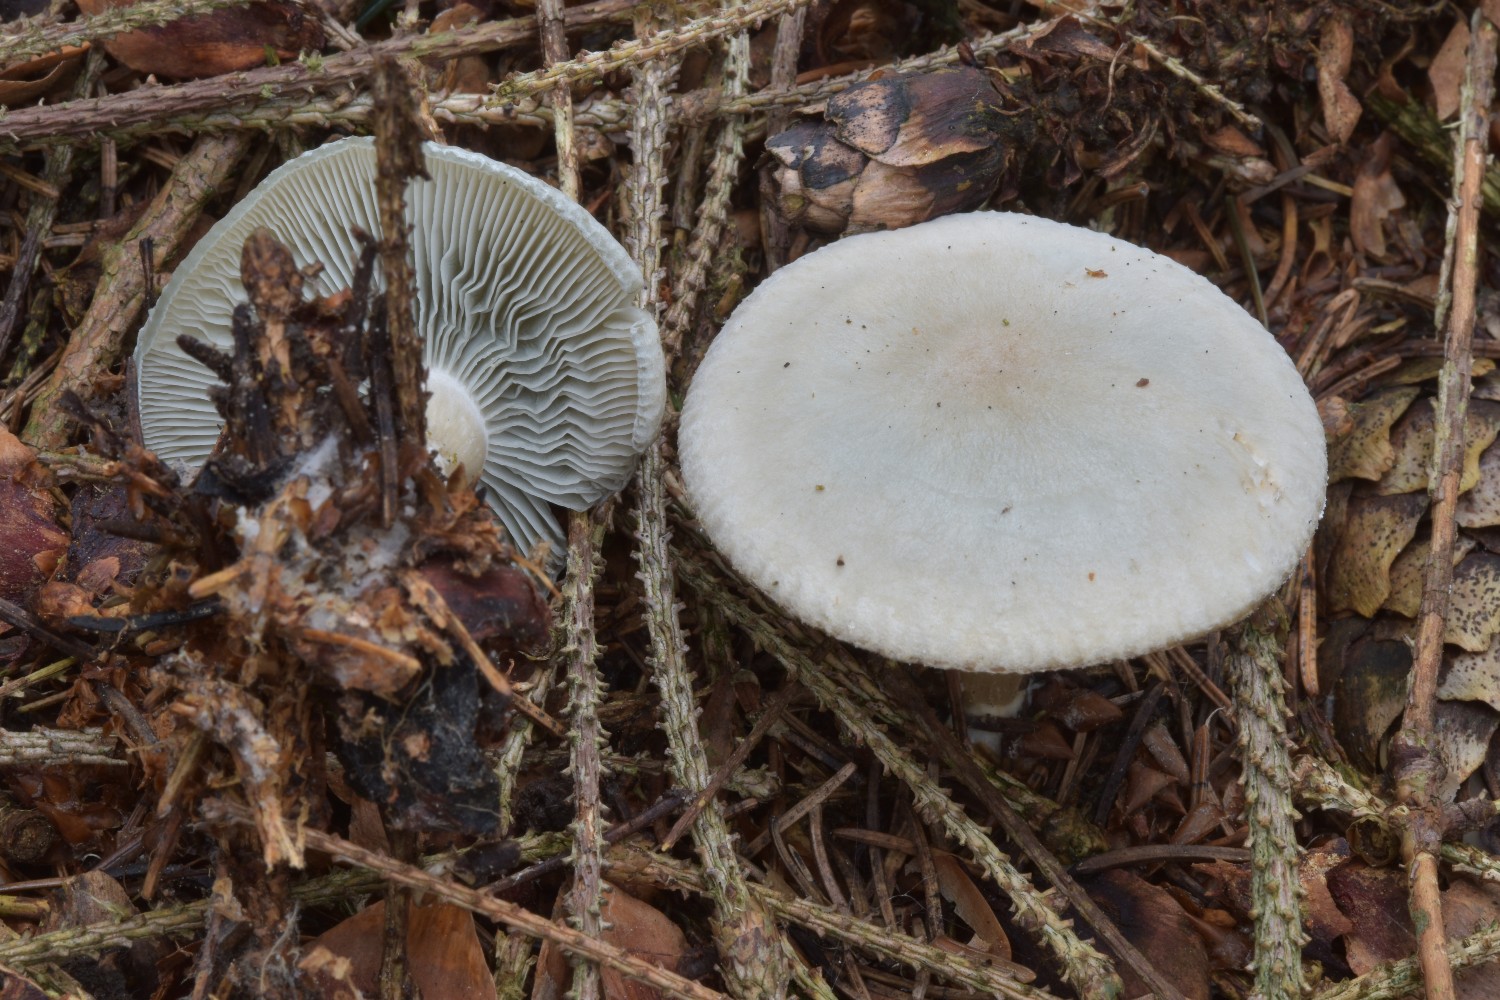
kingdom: Fungi
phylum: Basidiomycota
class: Agaricomycetes
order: Agaricales
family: Tricholomataceae
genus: Clitocybe
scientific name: Clitocybe odora
